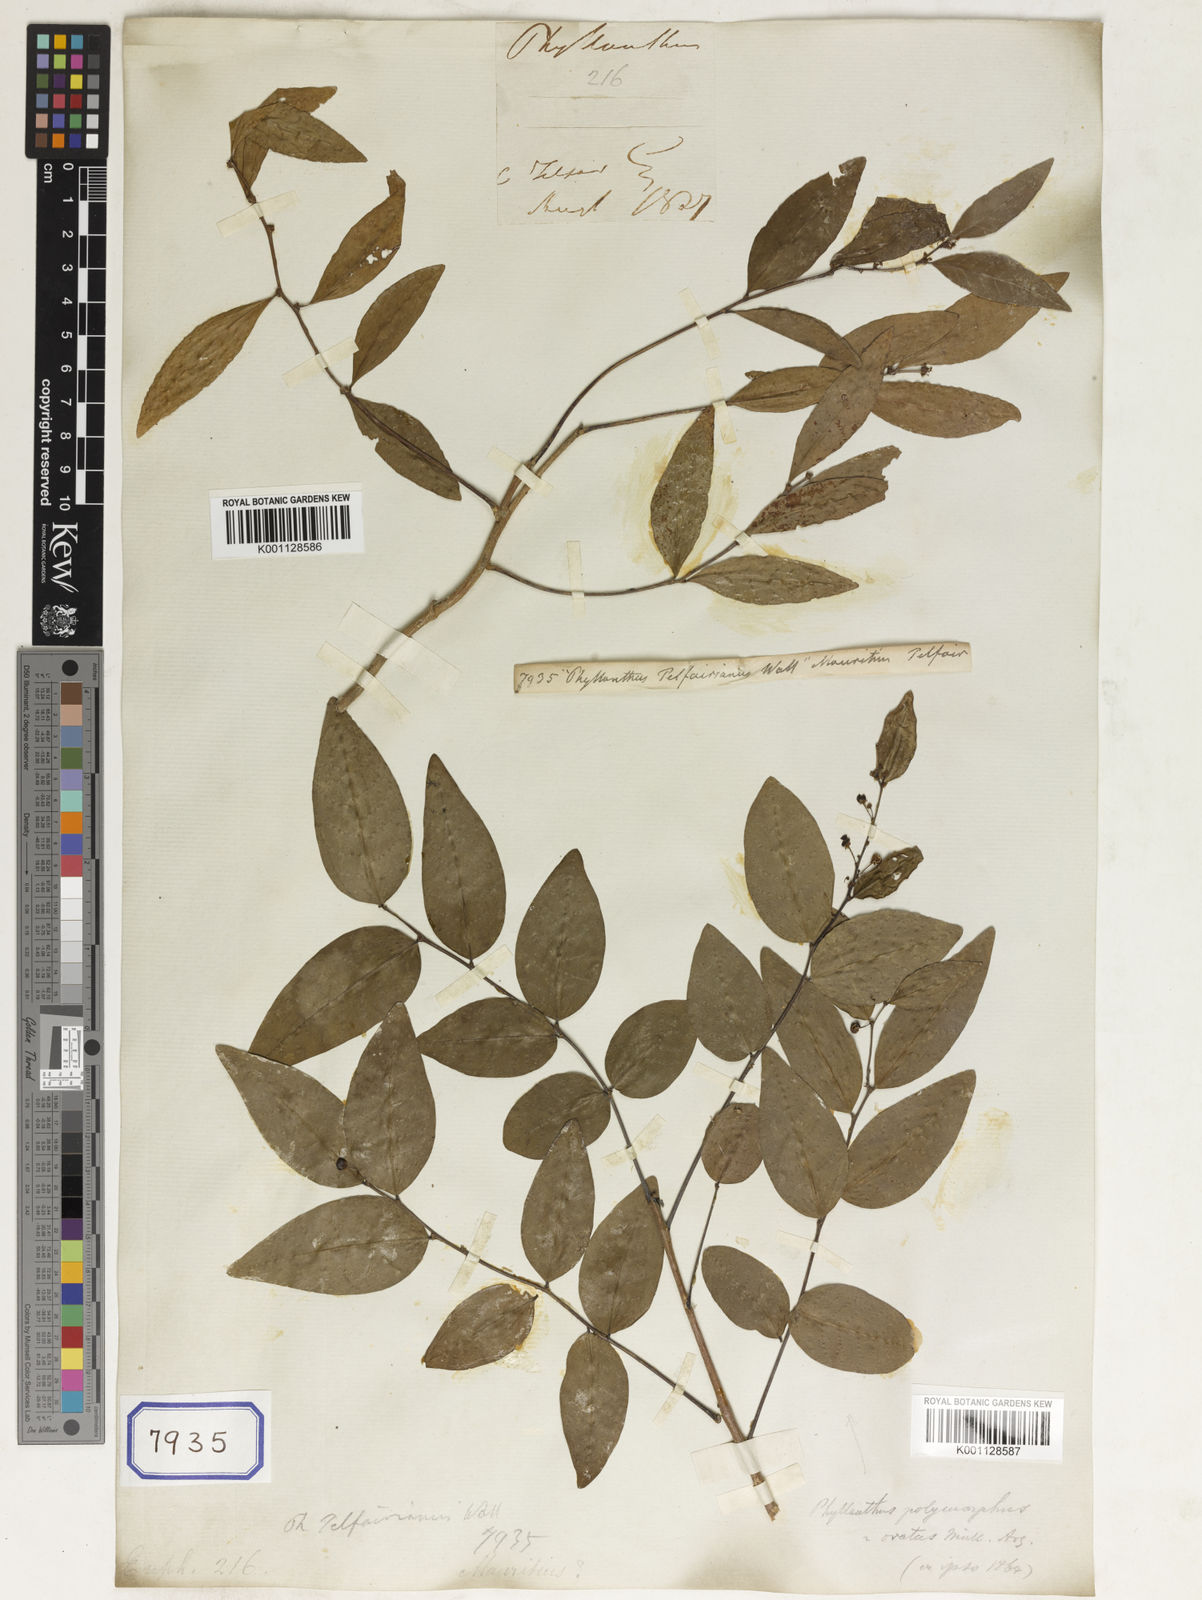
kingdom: Plantae
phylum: Tracheophyta
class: Magnoliopsida
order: Malpighiales
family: Euphorbiaceae
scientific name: Euphorbiaceae
